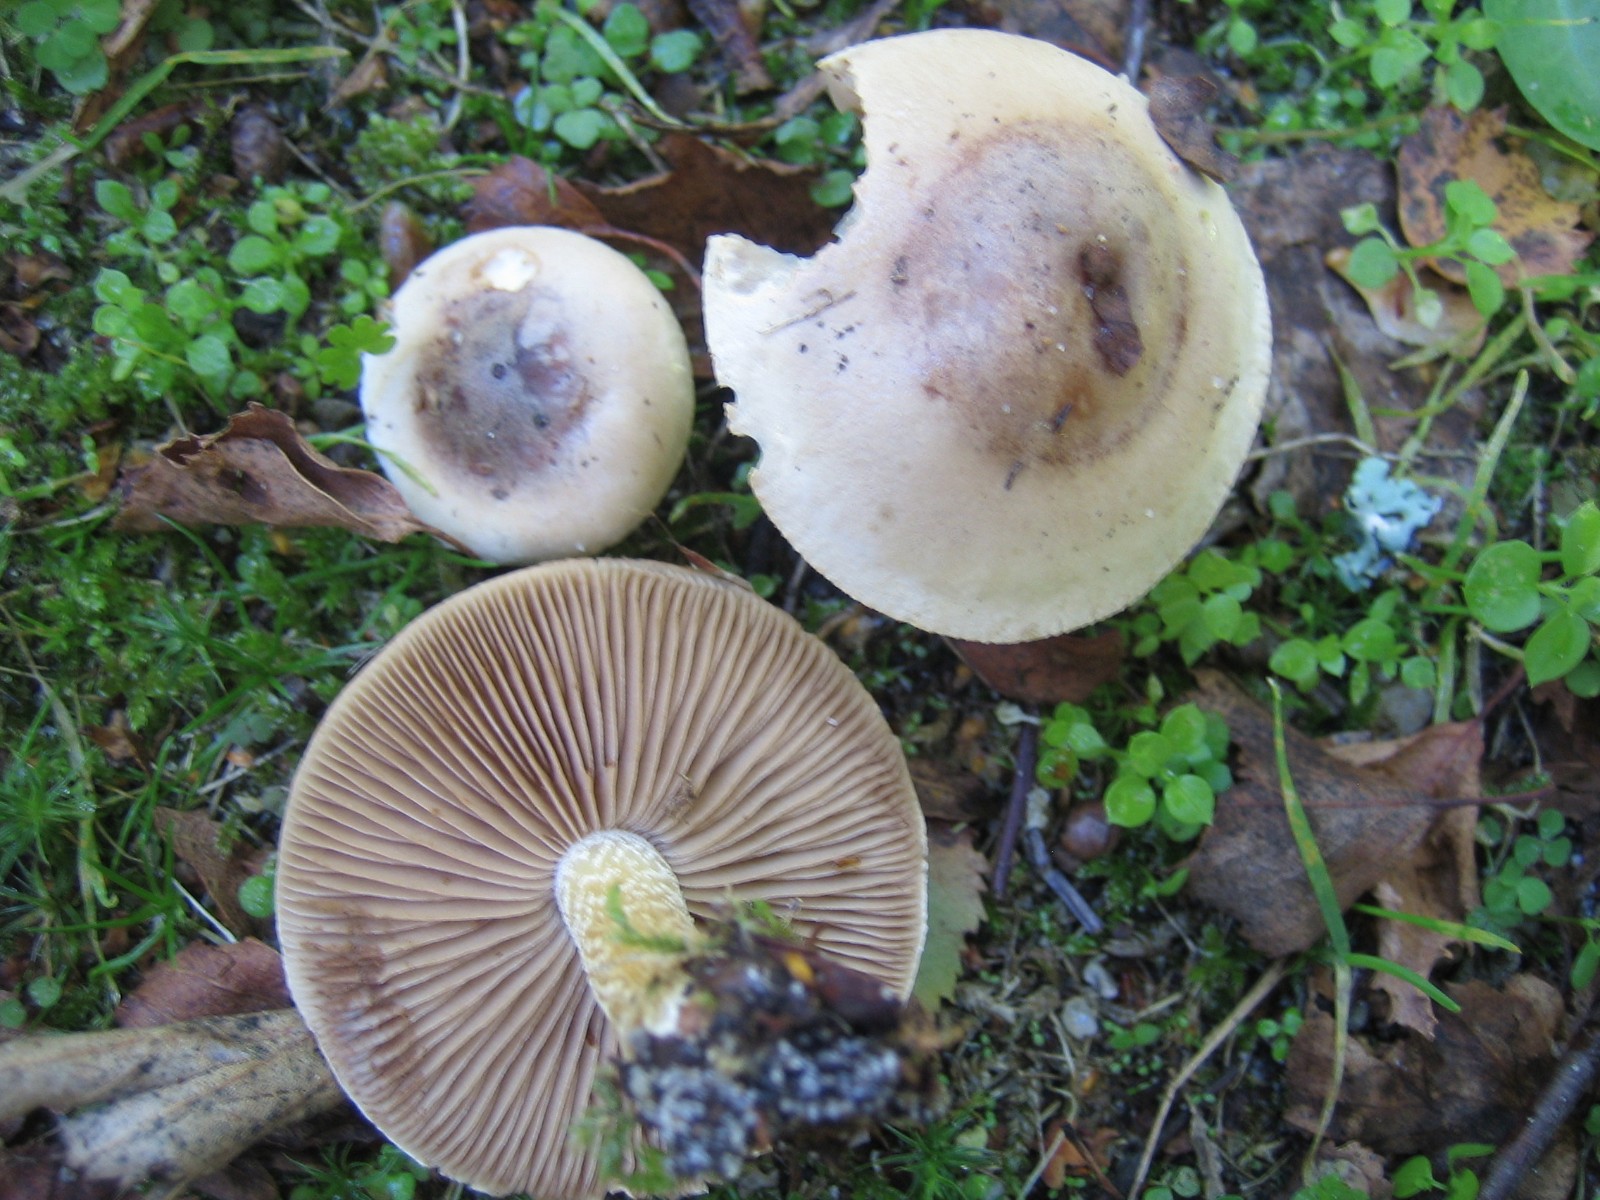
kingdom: Fungi
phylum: Basidiomycota
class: Agaricomycetes
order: Agaricales
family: Hymenogastraceae
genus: Hebeloma
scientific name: Hebeloma
